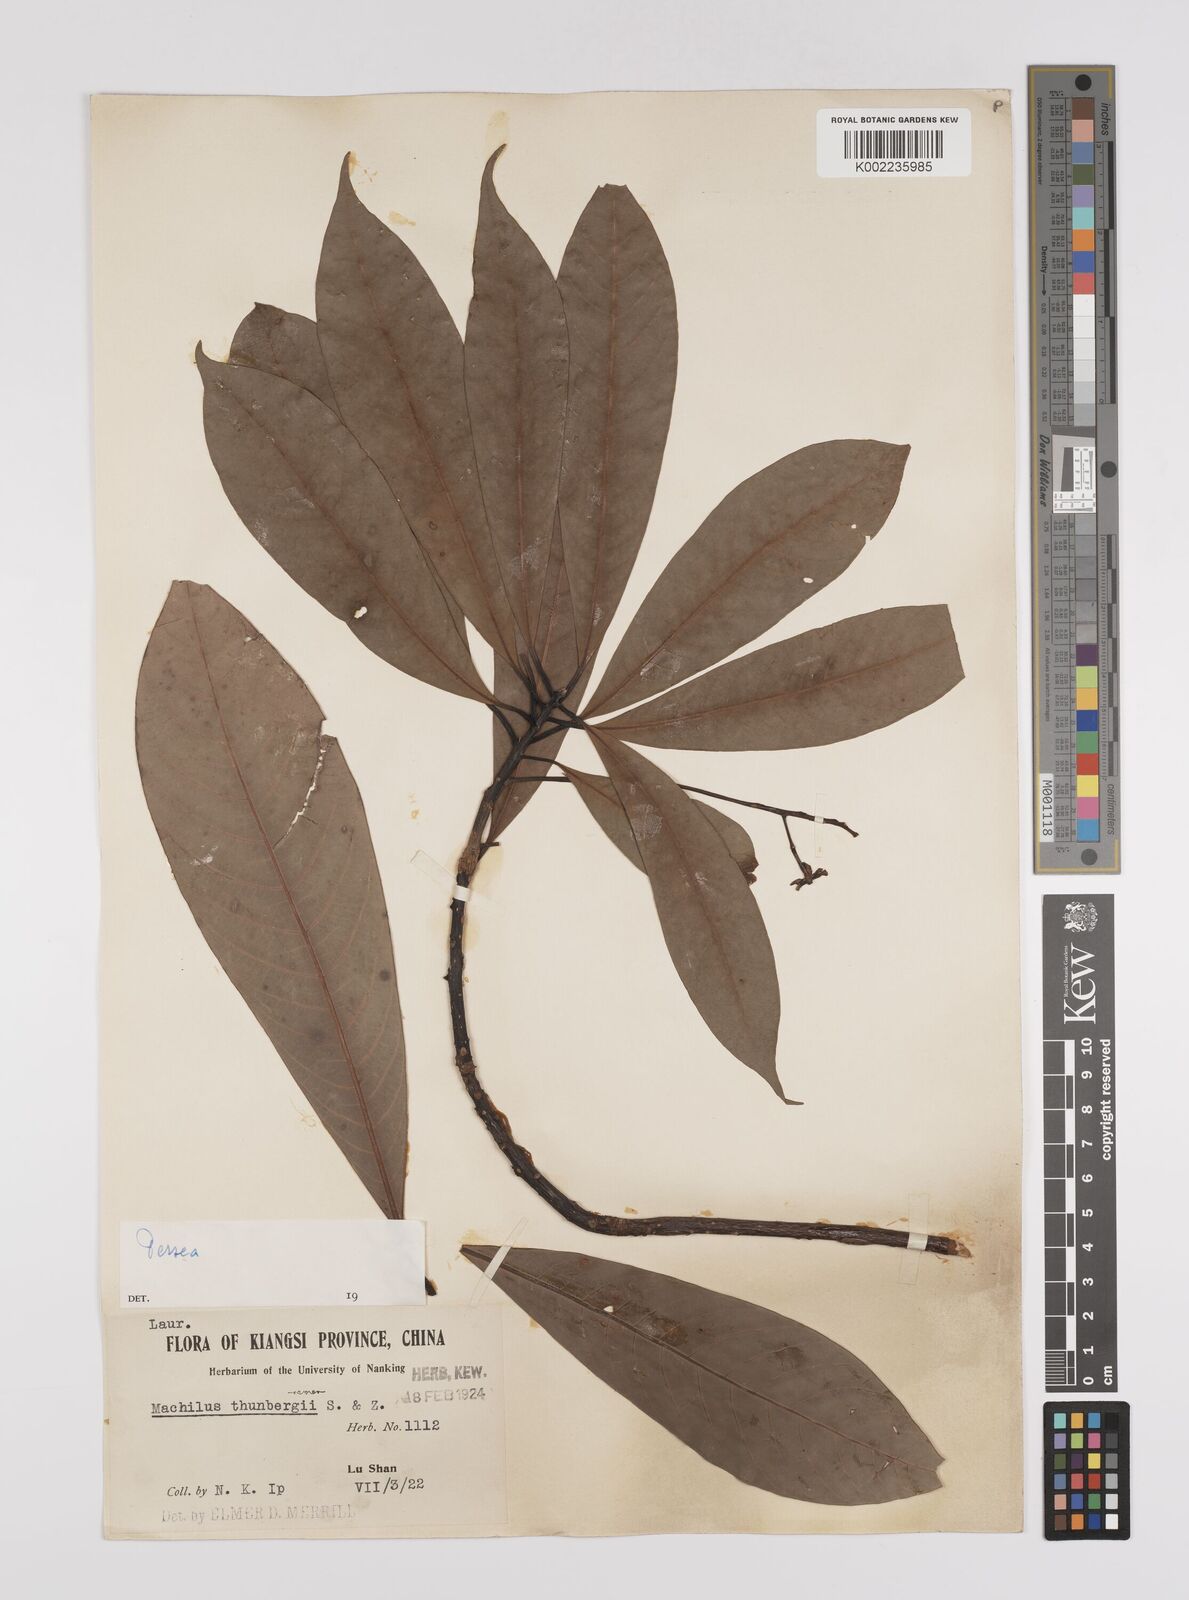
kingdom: Plantae
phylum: Tracheophyta
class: Magnoliopsida
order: Laurales
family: Lauraceae
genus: Persea
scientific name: Persea
